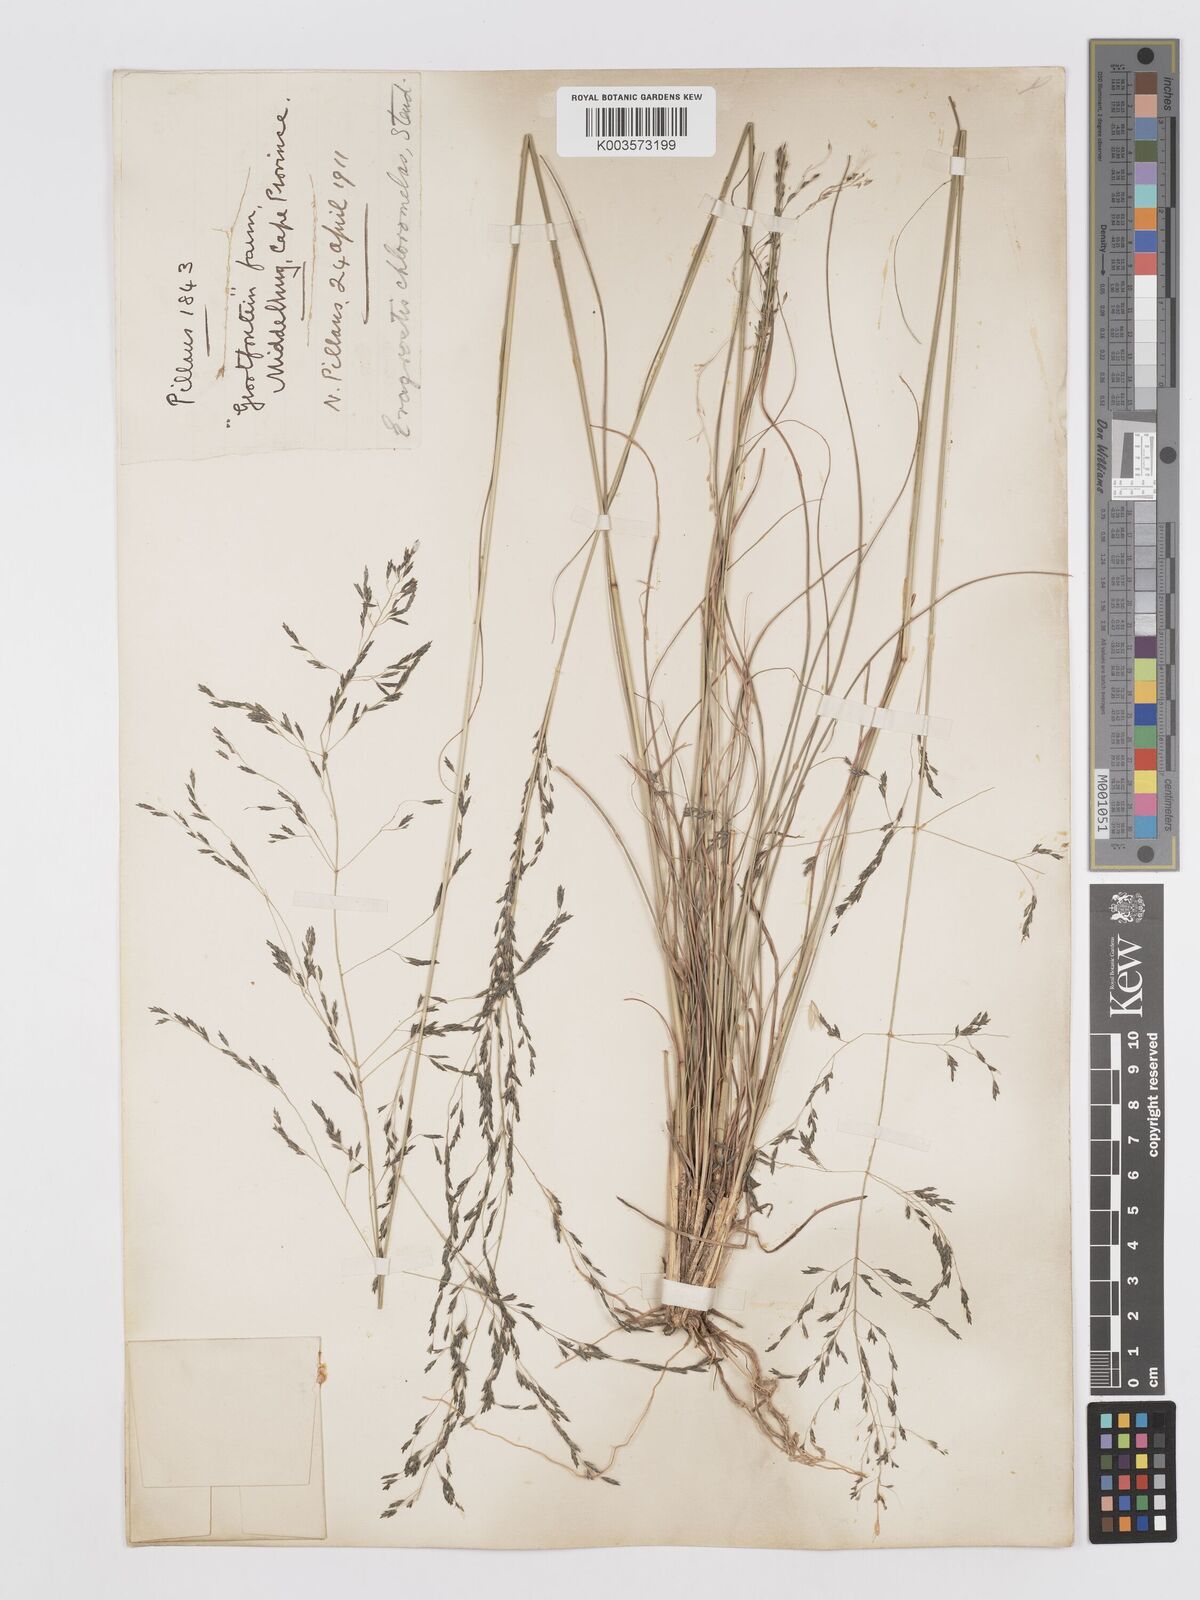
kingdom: Plantae
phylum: Tracheophyta
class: Liliopsida
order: Poales
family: Poaceae
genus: Eragrostis
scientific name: Eragrostis curvula
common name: African love-grass
